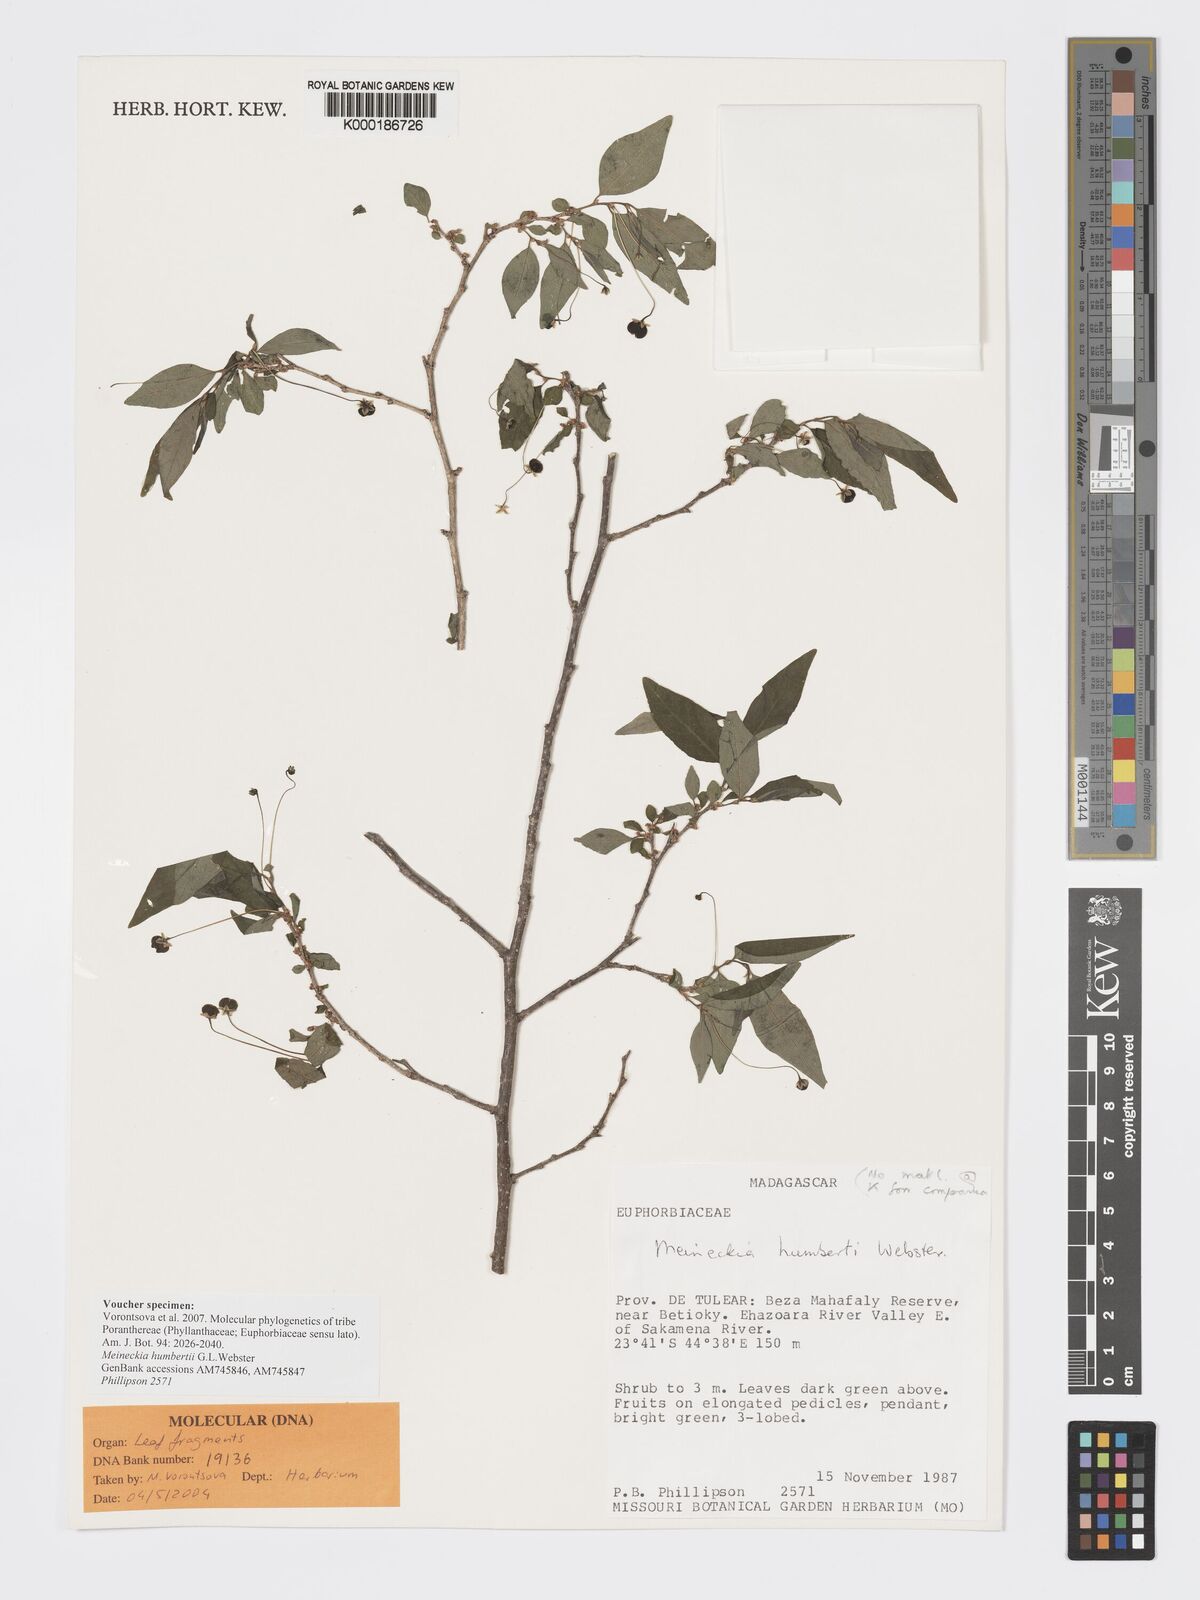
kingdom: Plantae
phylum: Tracheophyta
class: Magnoliopsida
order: Malpighiales
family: Phyllanthaceae
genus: Meineckia
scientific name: Meineckia humbertii
